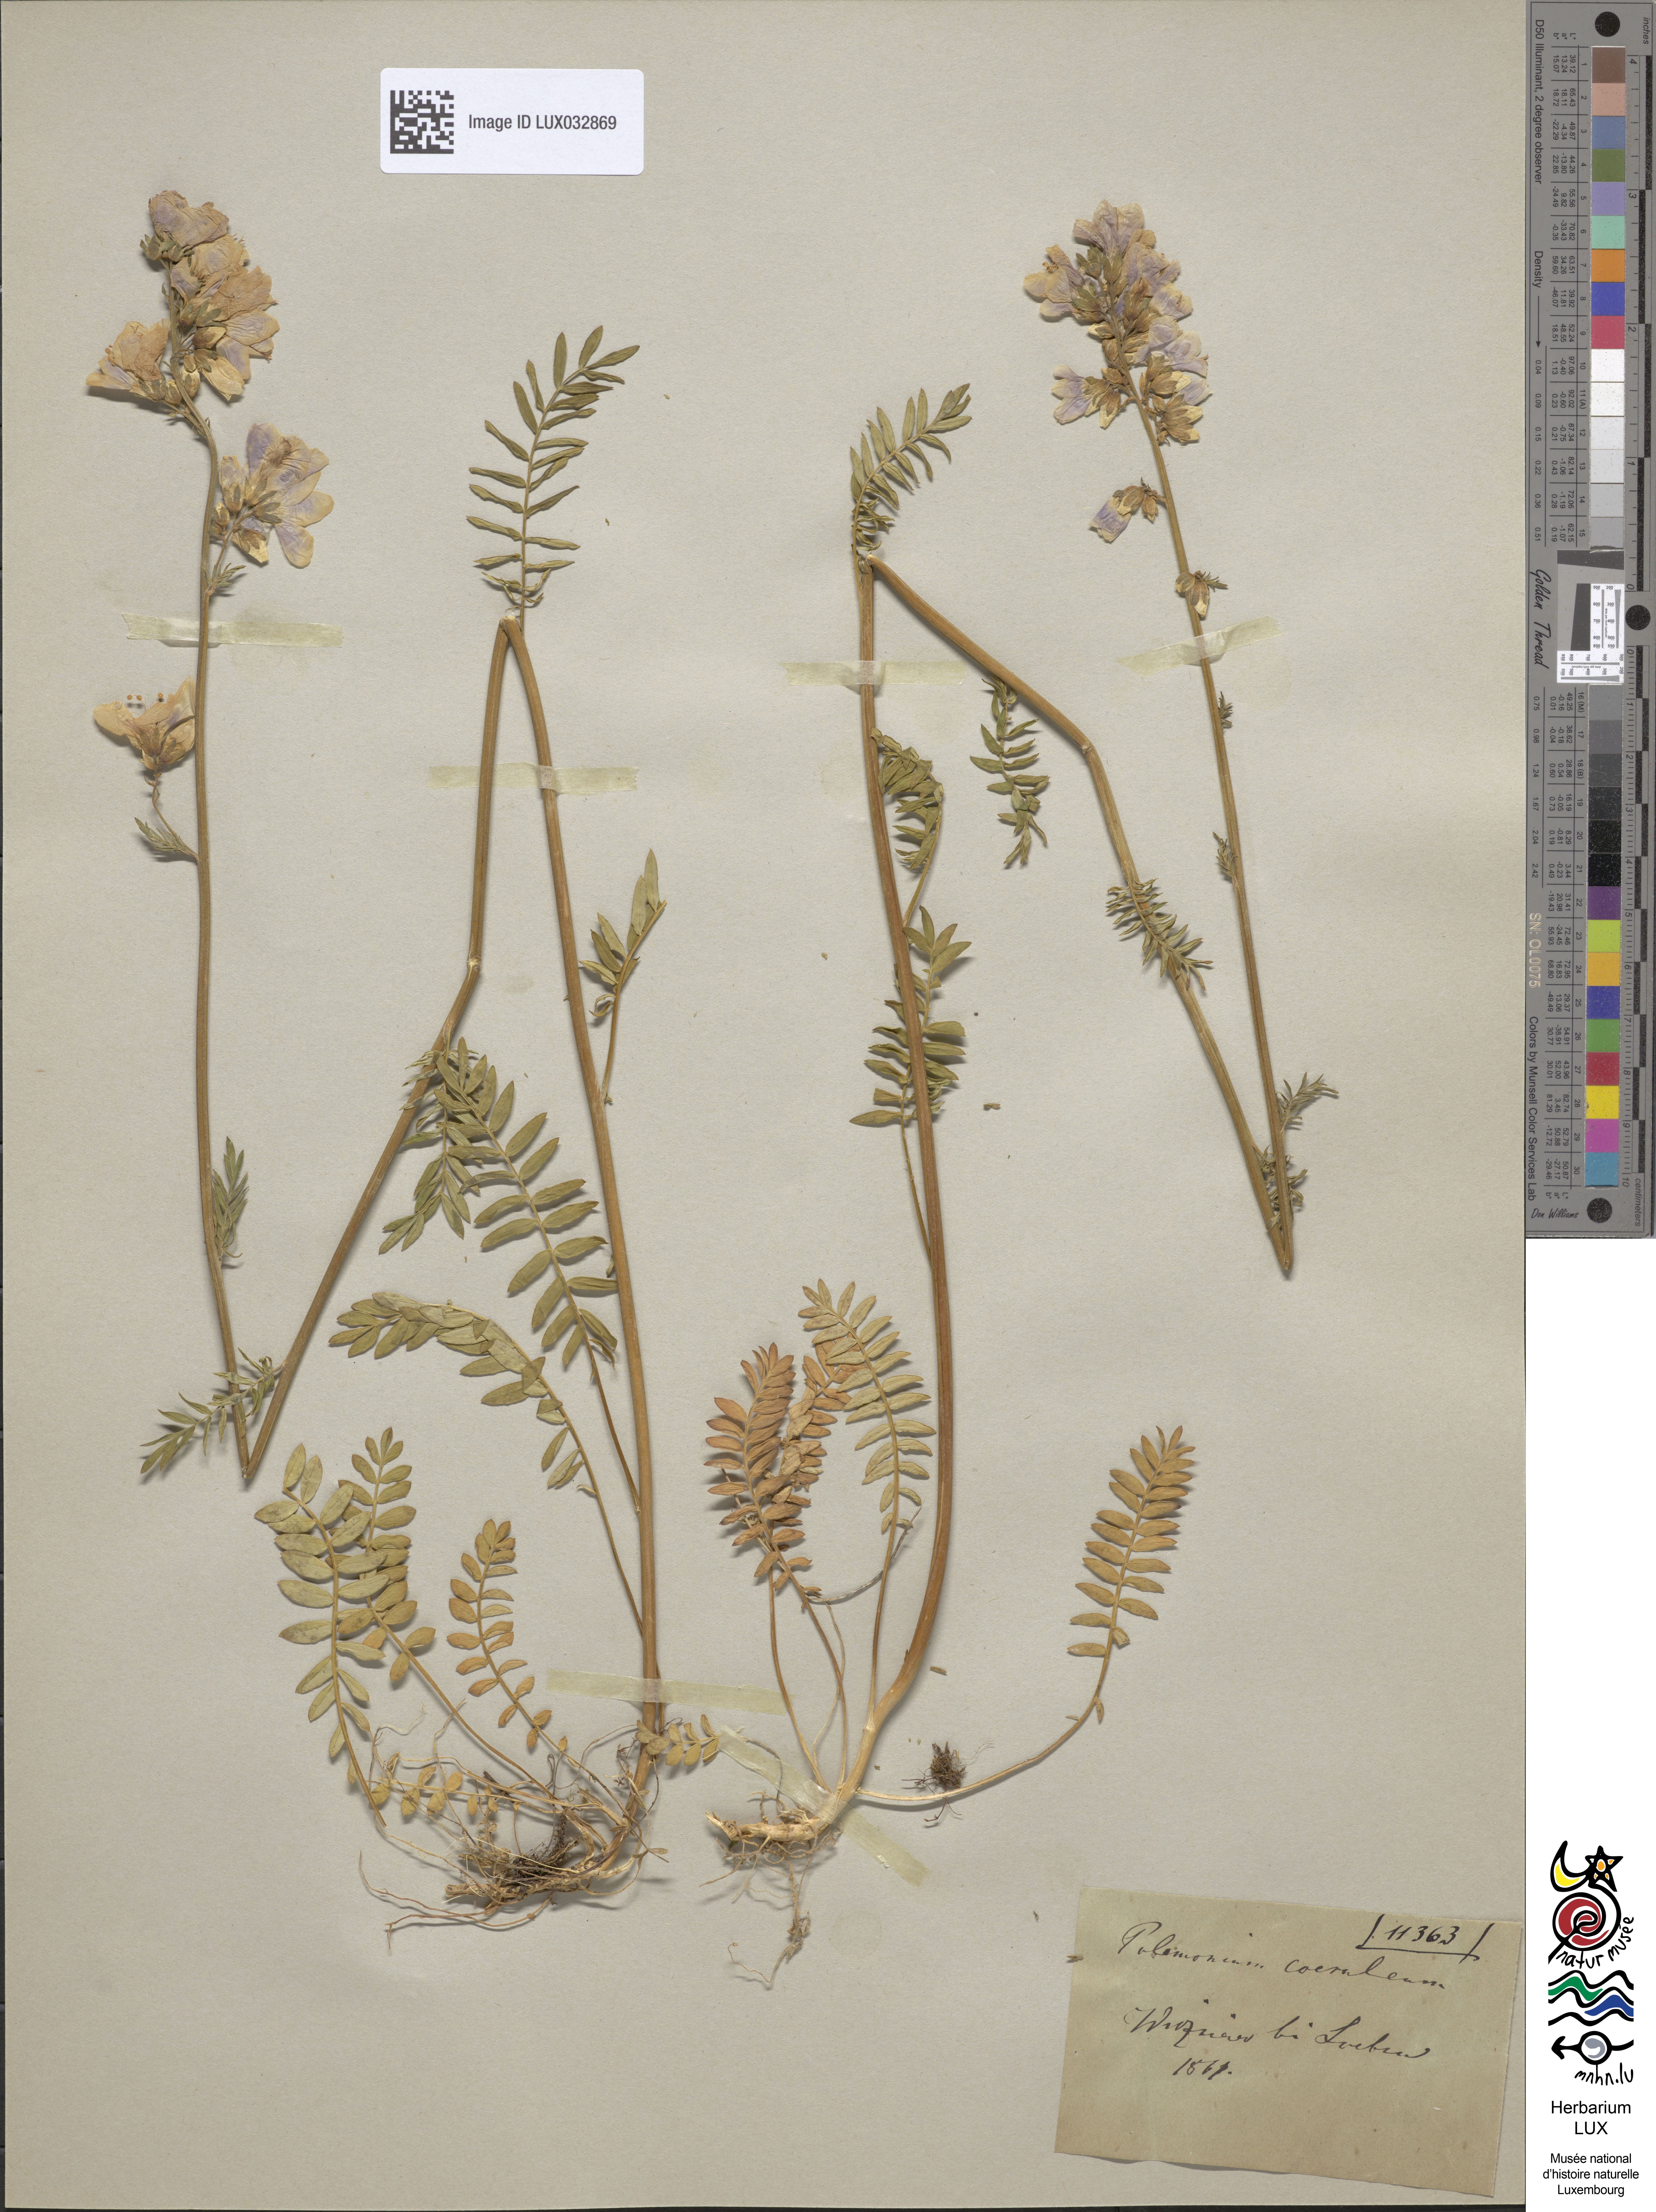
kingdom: Plantae
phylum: Tracheophyta
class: Magnoliopsida
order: Ericales
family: Polemoniaceae
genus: Polemonium
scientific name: Polemonium caeruleum
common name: Jacob's-ladder
